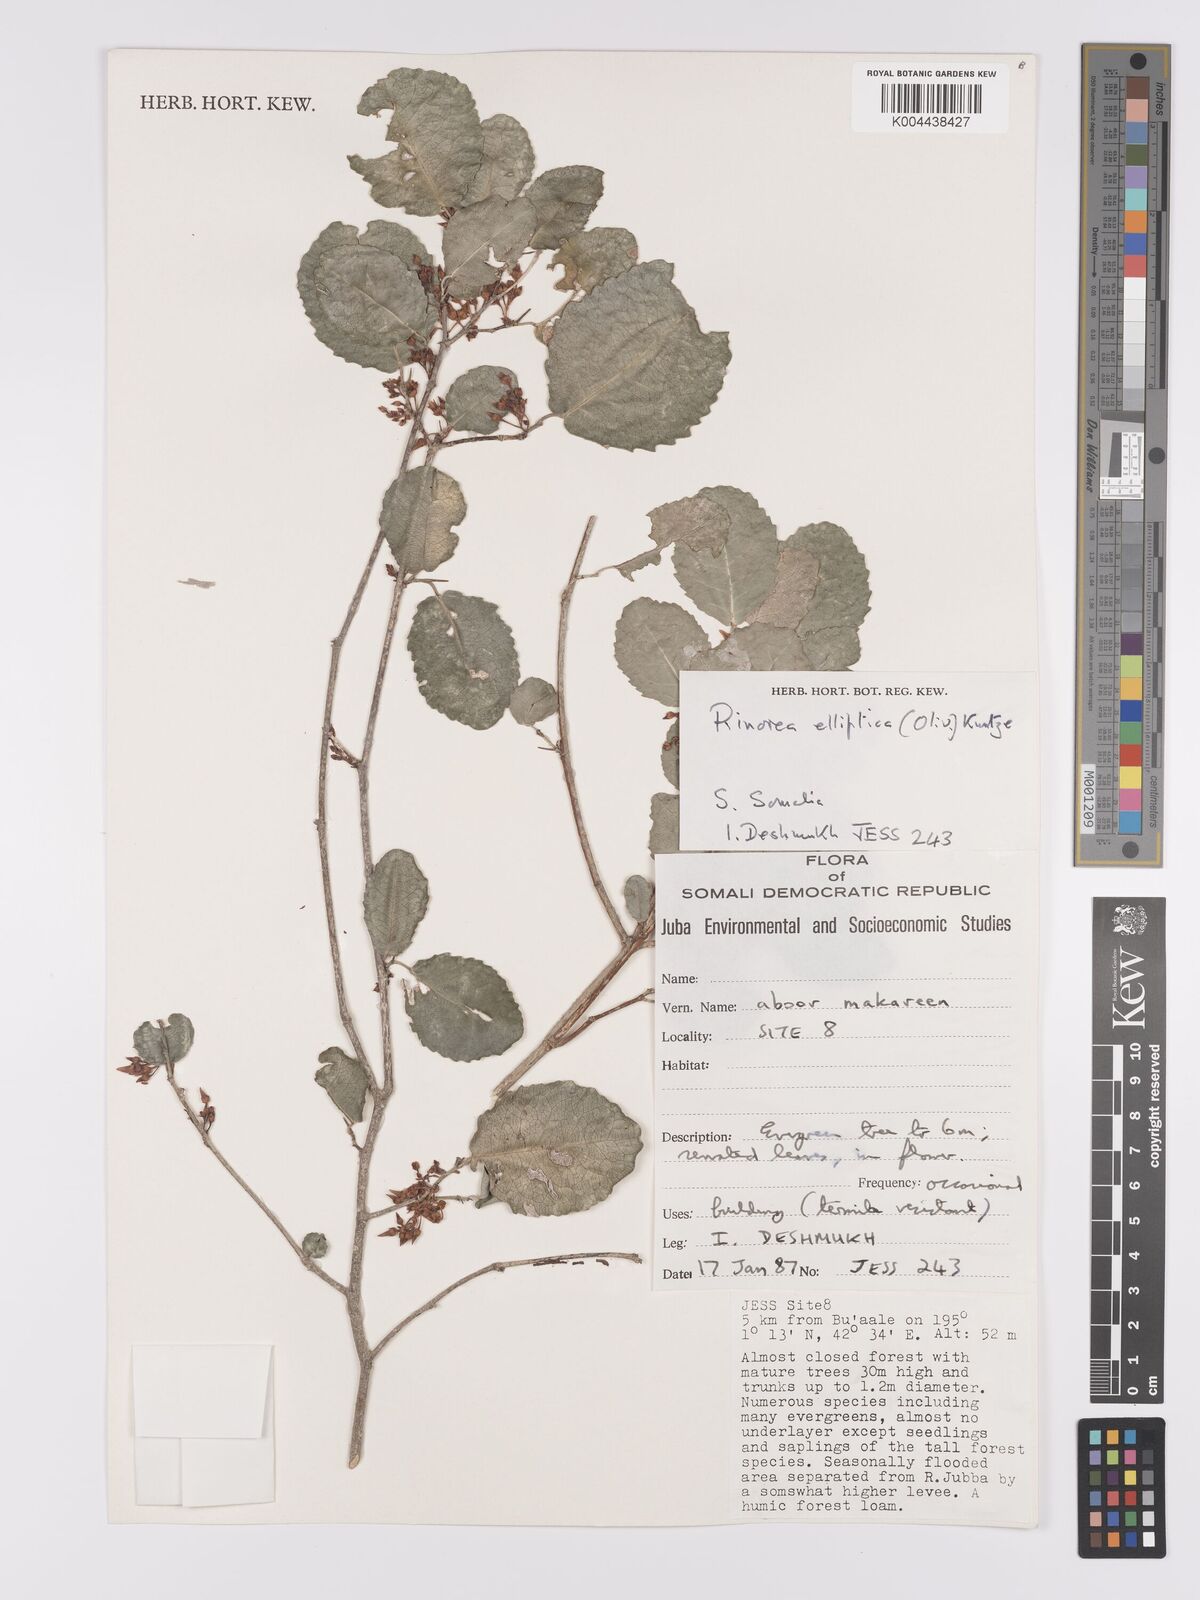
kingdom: Plantae
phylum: Tracheophyta
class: Magnoliopsida
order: Malpighiales
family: Violaceae
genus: Rinorea
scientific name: Rinorea elliptica
